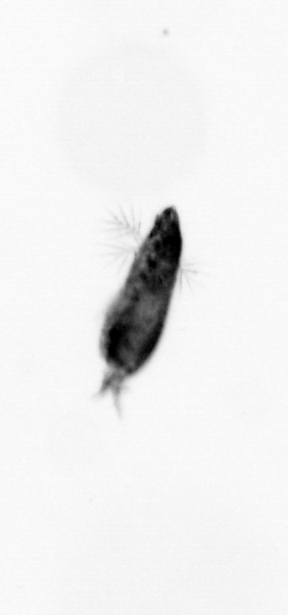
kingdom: Animalia
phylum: Arthropoda
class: Copepoda
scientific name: Copepoda
